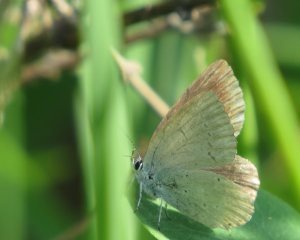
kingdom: Animalia
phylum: Arthropoda
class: Insecta
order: Lepidoptera
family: Lycaenidae
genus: Elkalyce
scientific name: Elkalyce amyntula
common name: Western Tailed-Blue
